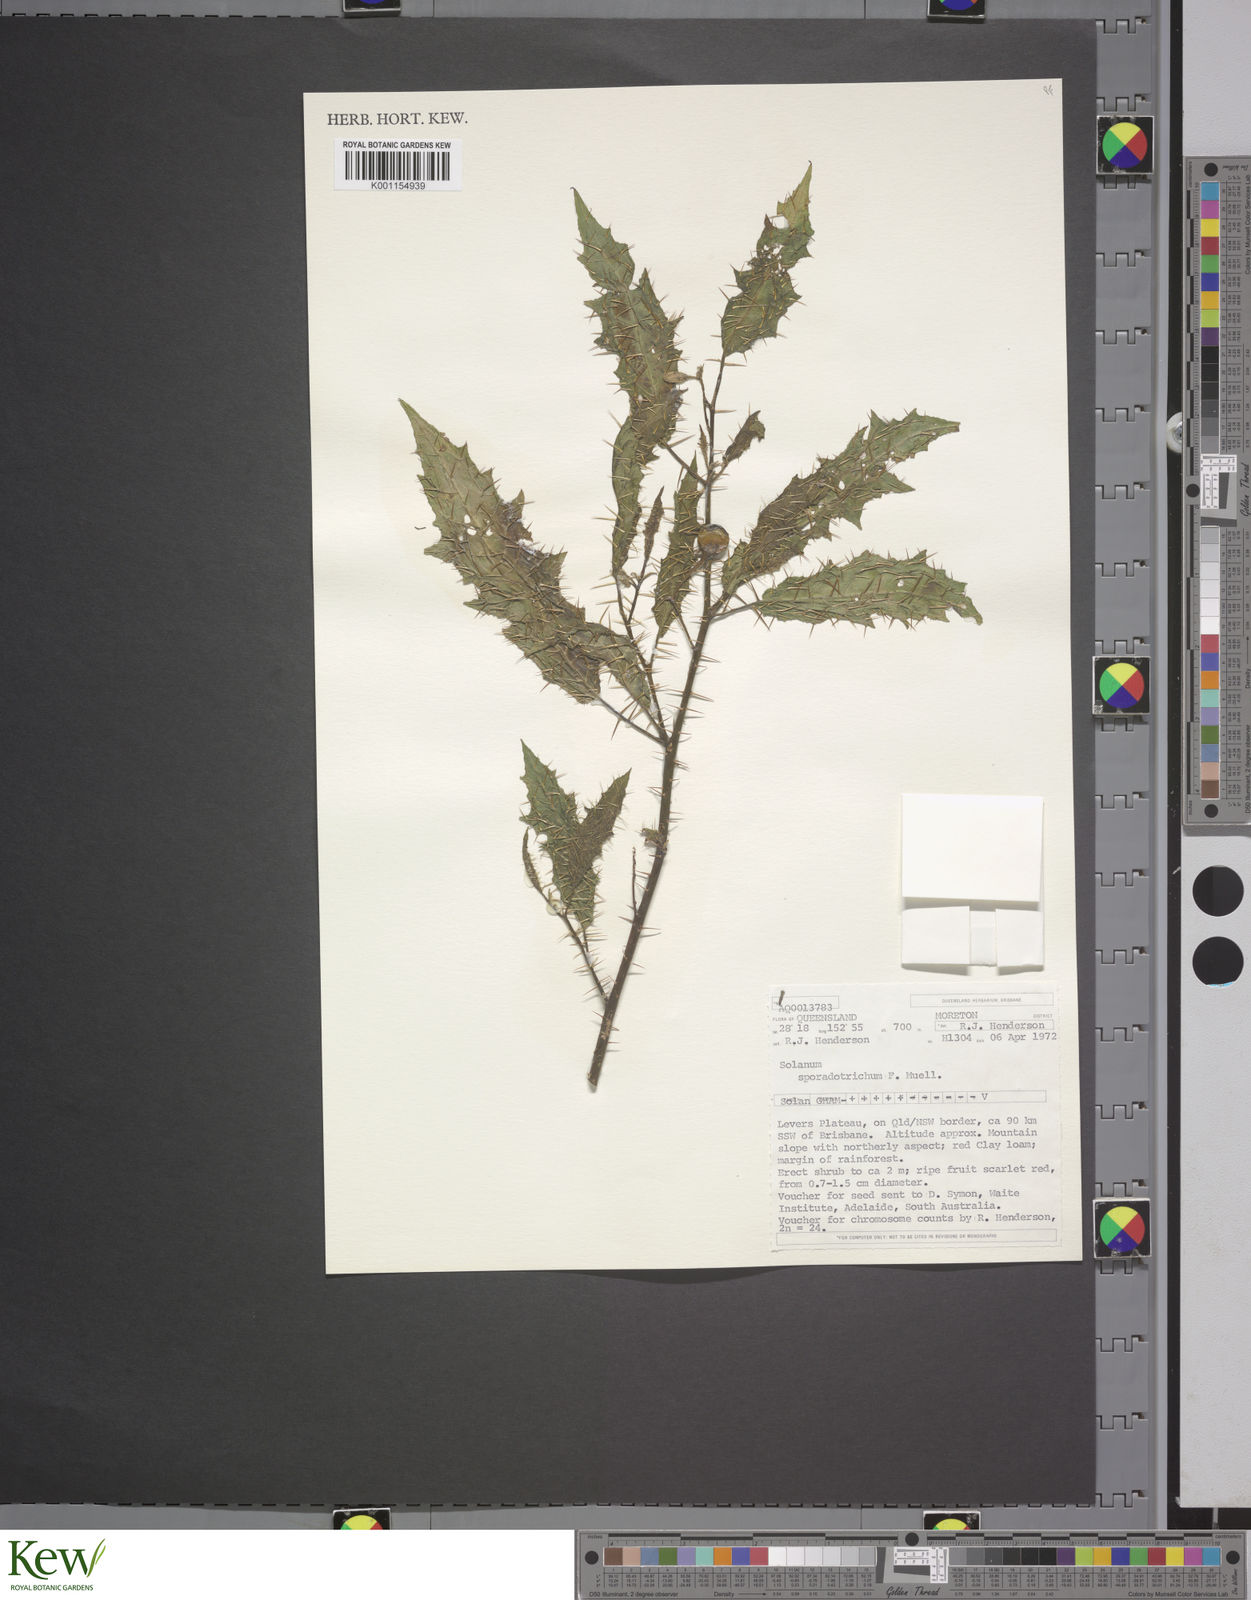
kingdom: Plantae
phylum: Tracheophyta
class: Magnoliopsida
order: Solanales
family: Solanaceae
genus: Solanum
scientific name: Solanum sporadotrichum
